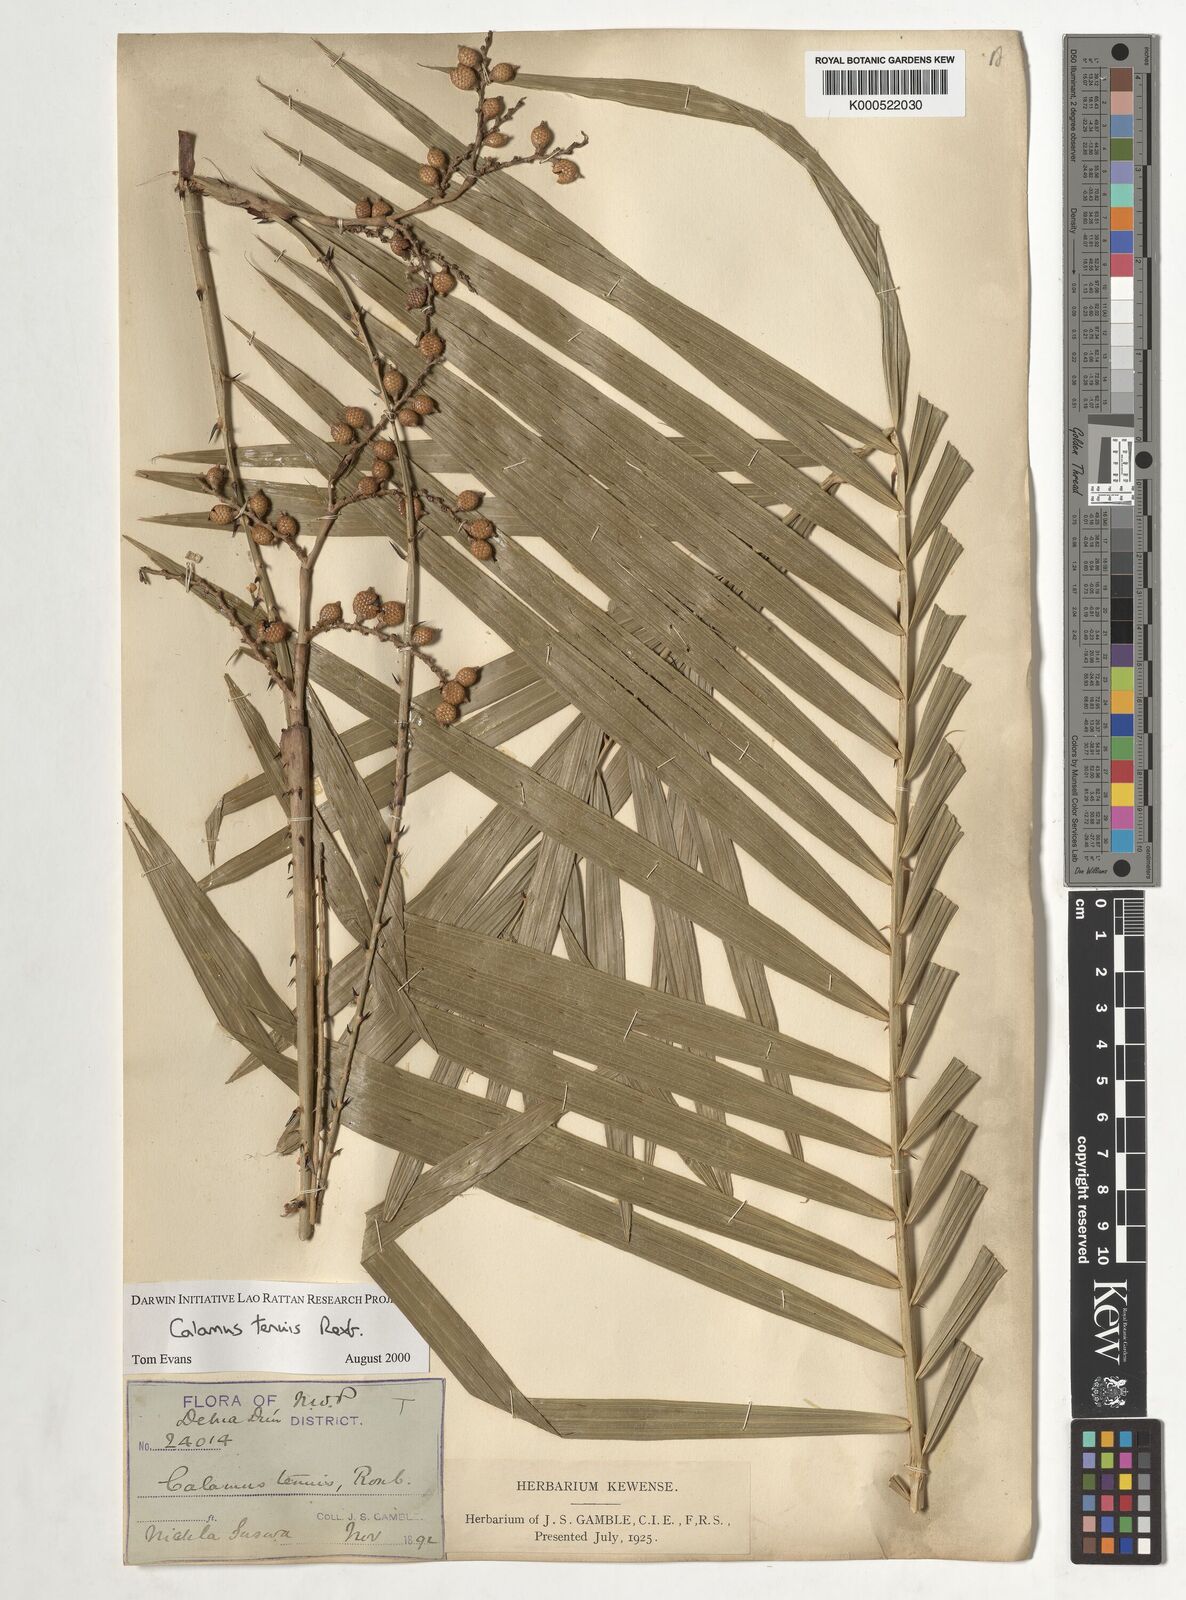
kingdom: Plantae
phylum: Tracheophyta
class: Liliopsida
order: Arecales
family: Arecaceae
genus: Calamus
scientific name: Calamus tenuis
